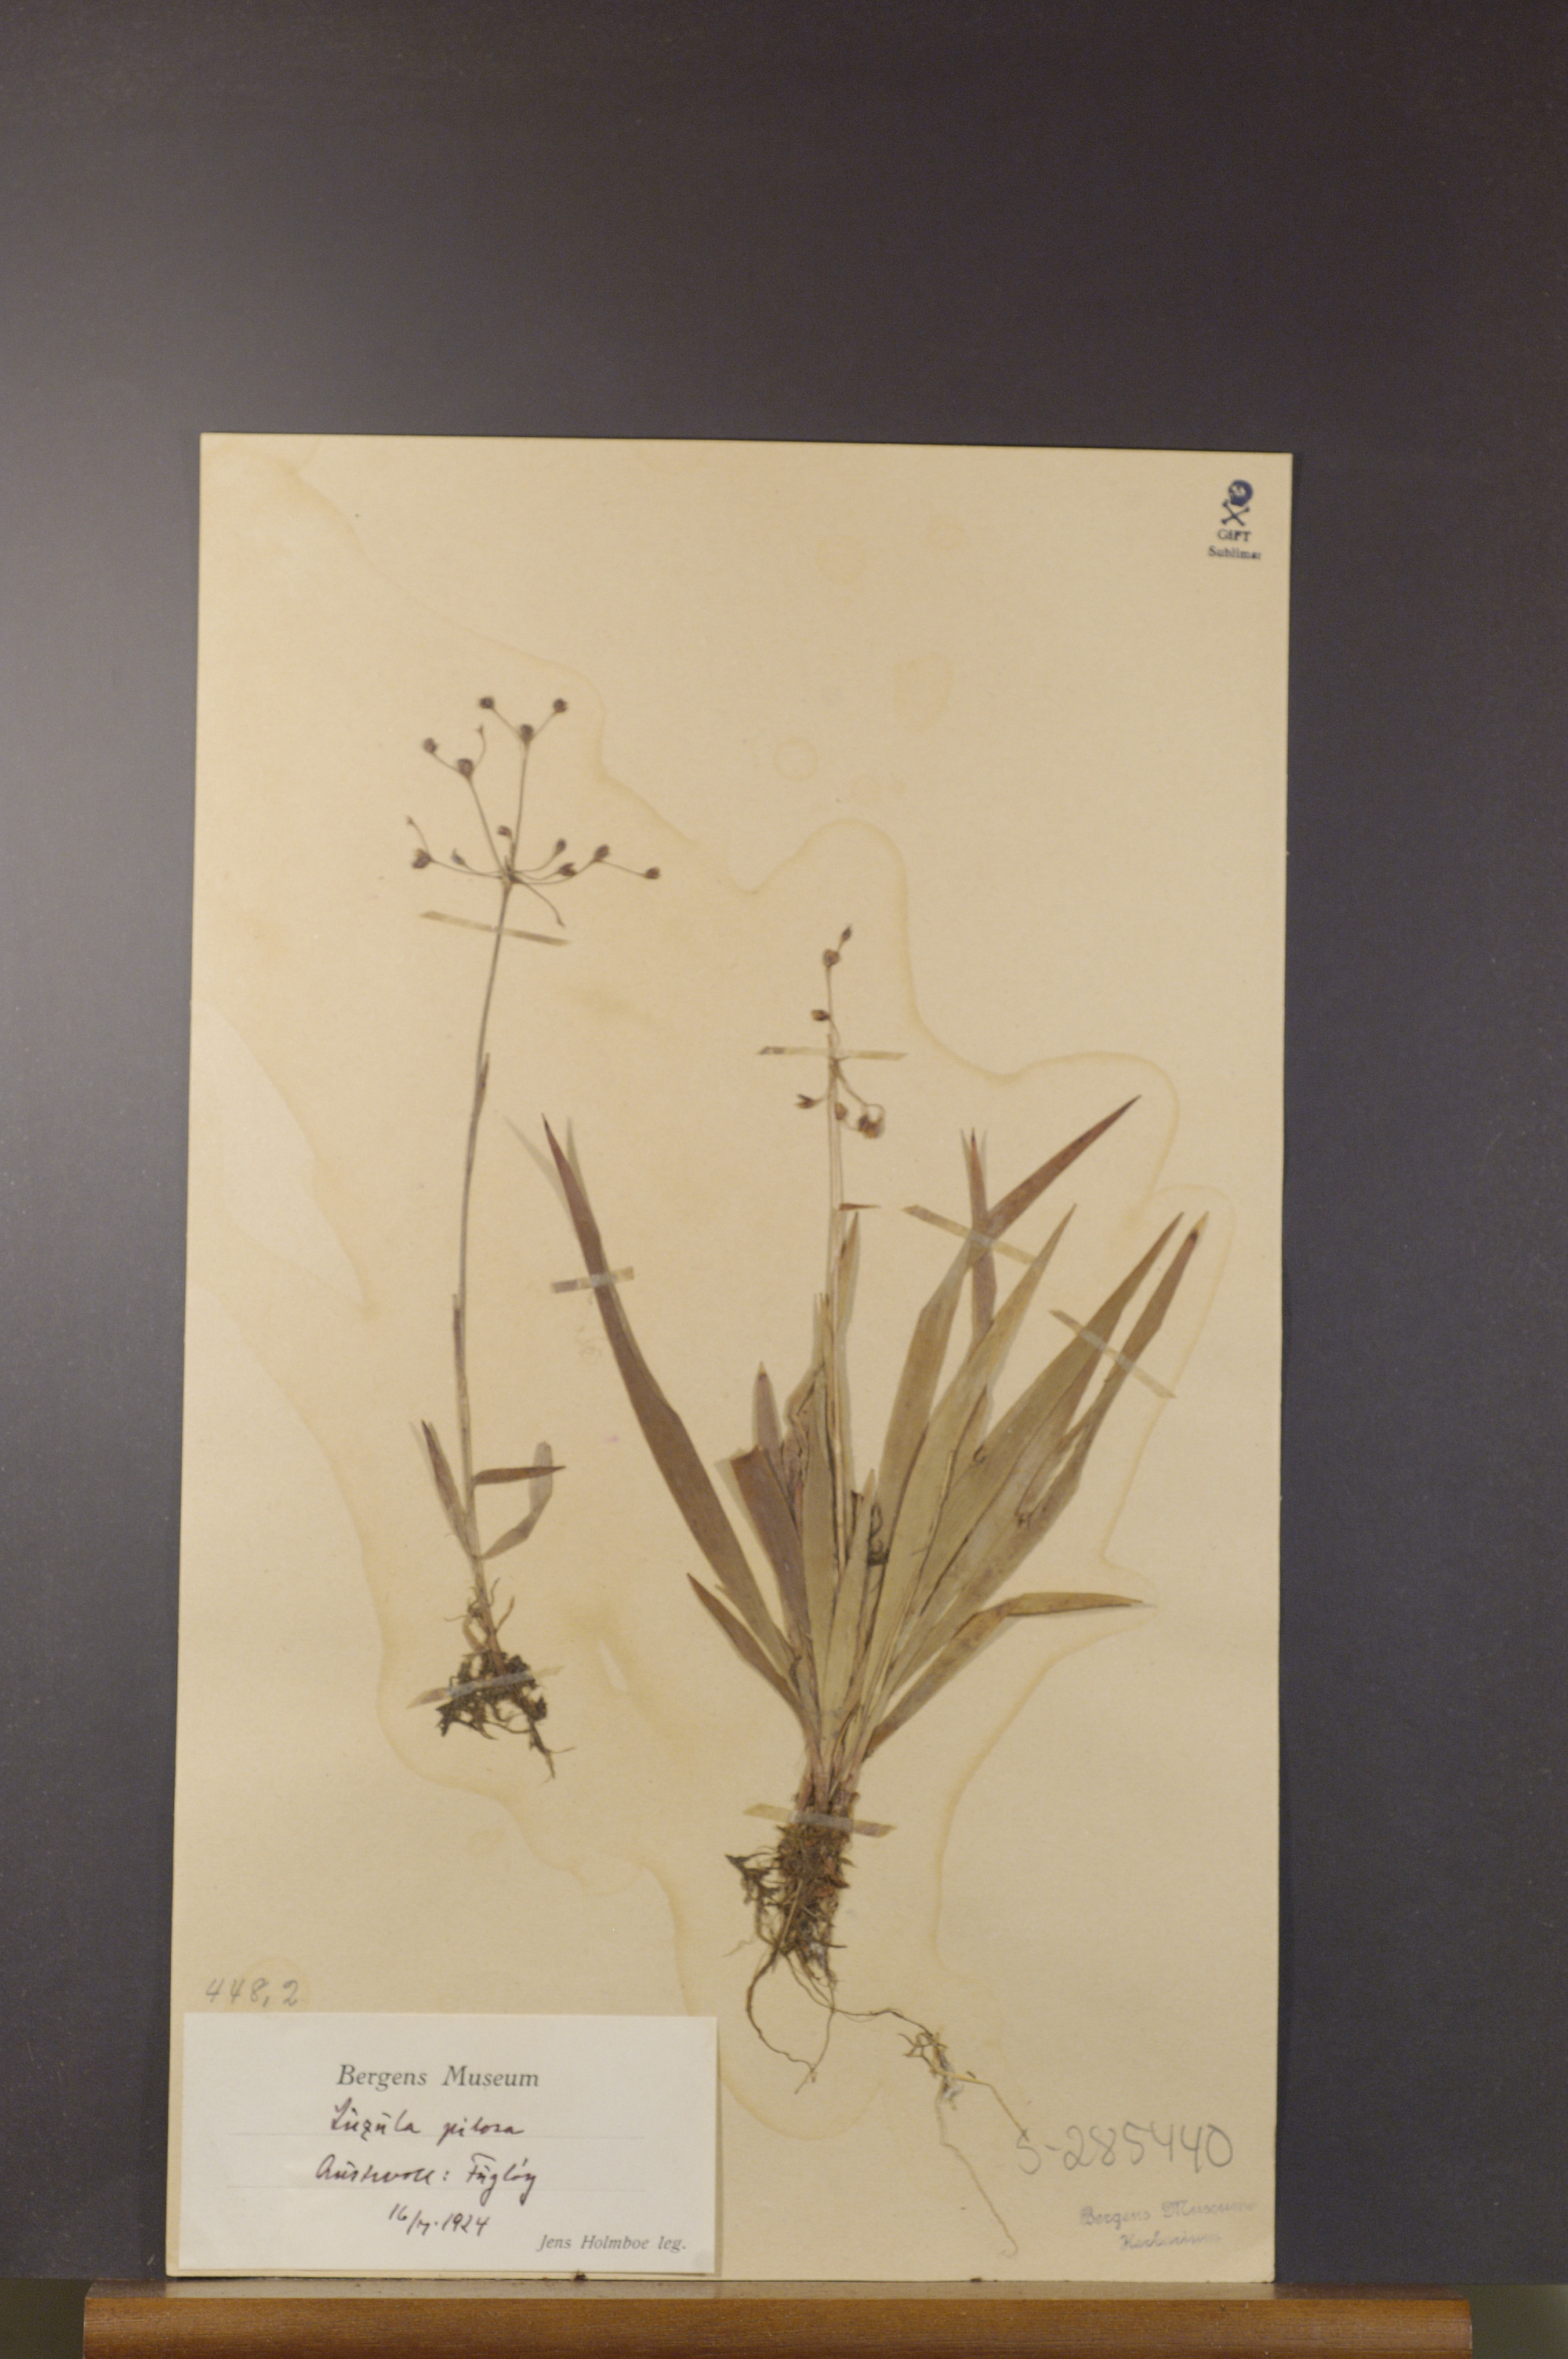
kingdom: Plantae
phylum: Tracheophyta
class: Liliopsida
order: Poales
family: Juncaceae
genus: Luzula
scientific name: Luzula pilosa
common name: Hairy wood-rush
